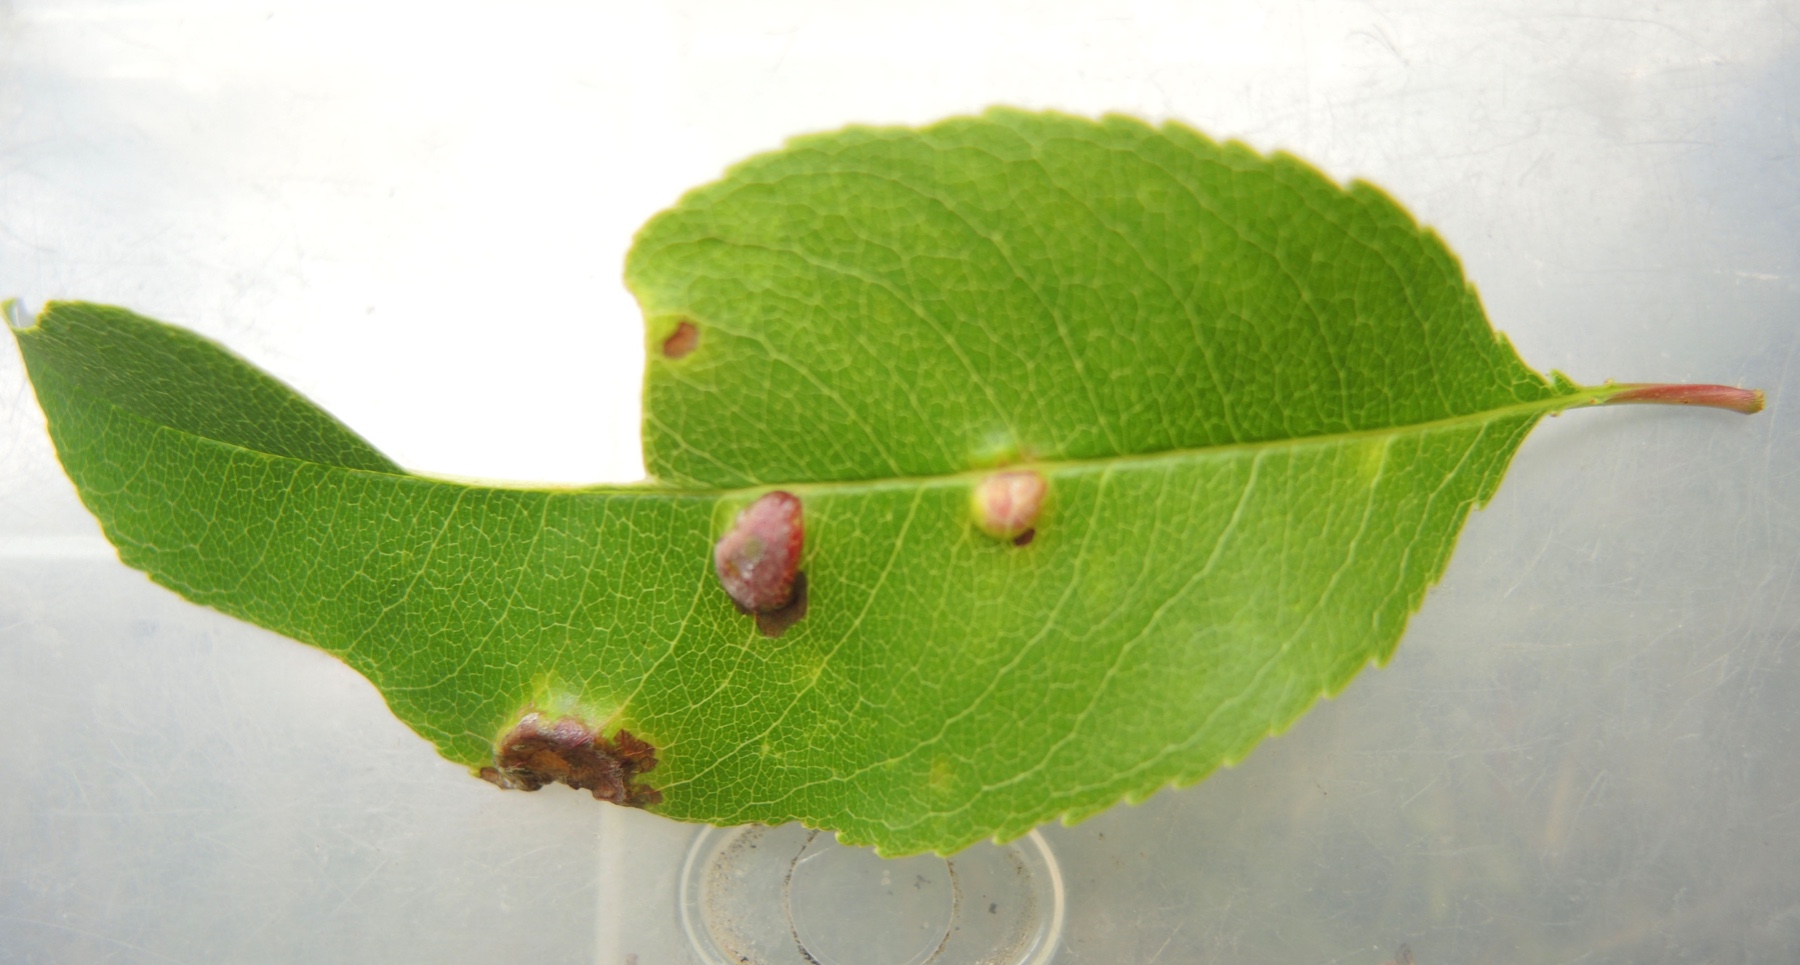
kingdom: Fungi
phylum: Ascomycota
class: Taphrinomycetes
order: Taphrinales
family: Taphrinaceae
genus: Taphrina
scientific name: Taphrina farlowii
